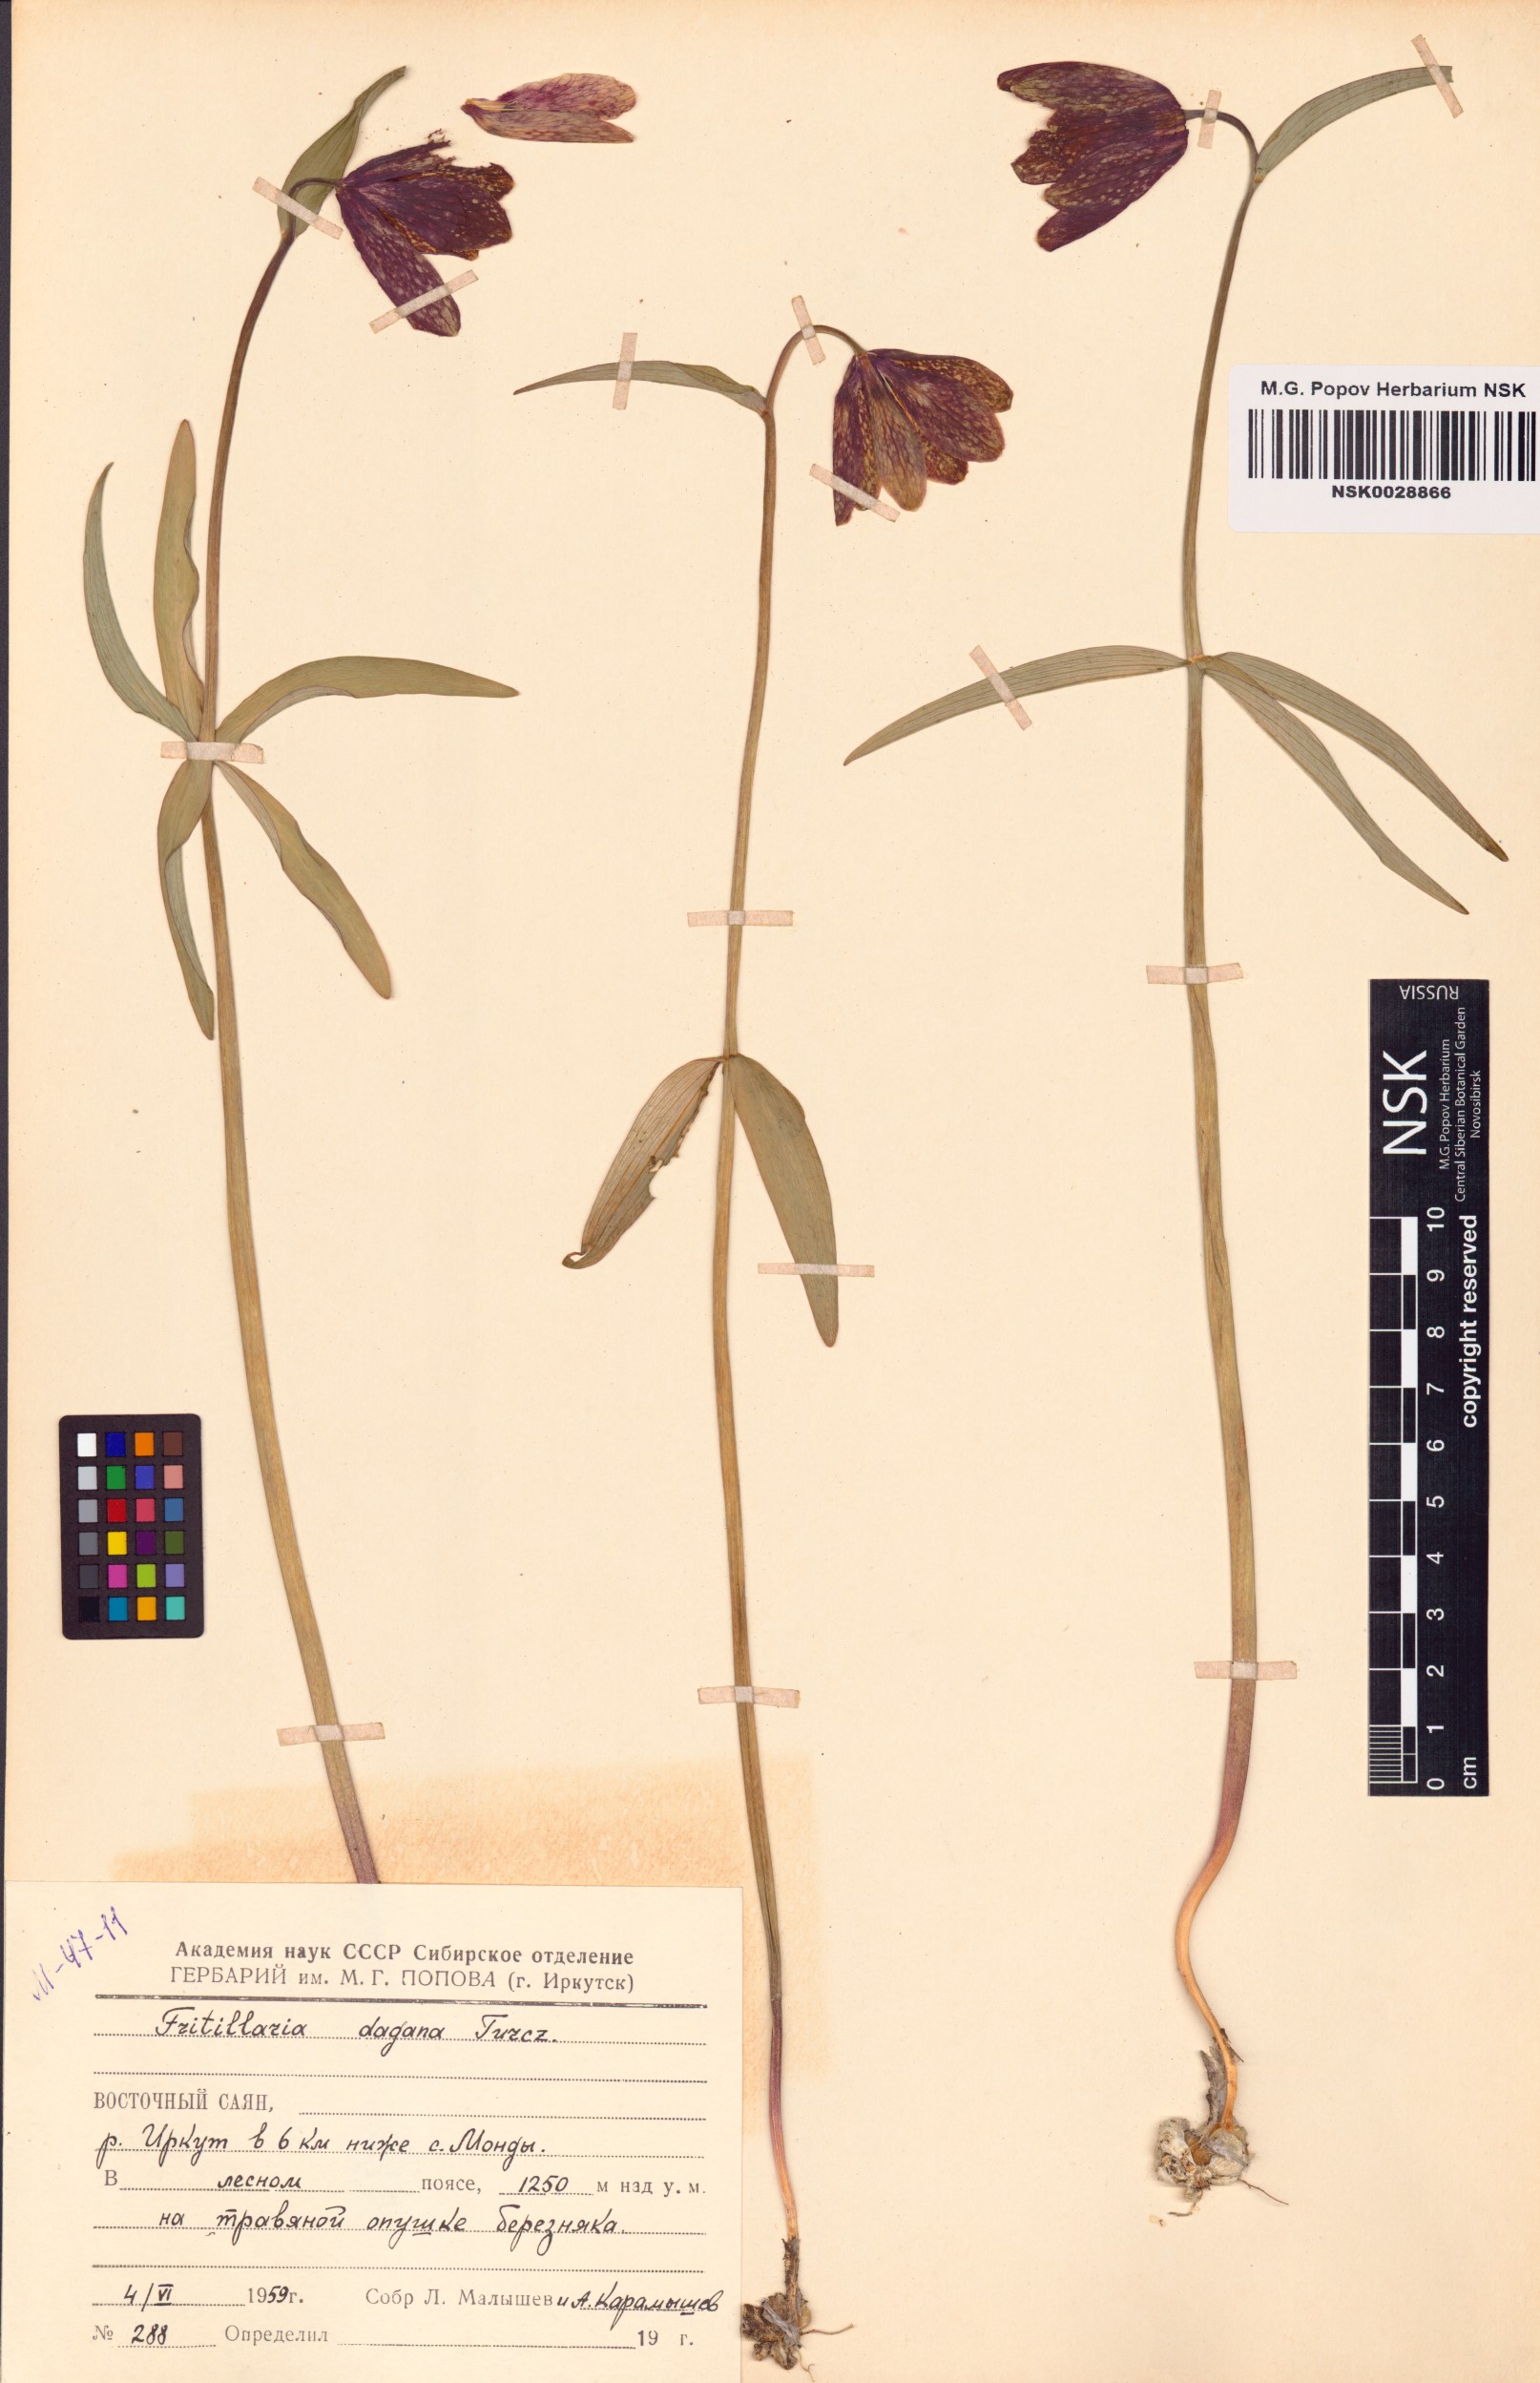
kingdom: Plantae
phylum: Tracheophyta
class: Liliopsida
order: Liliales
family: Liliaceae
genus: Fritillaria
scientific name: Fritillaria dagana
